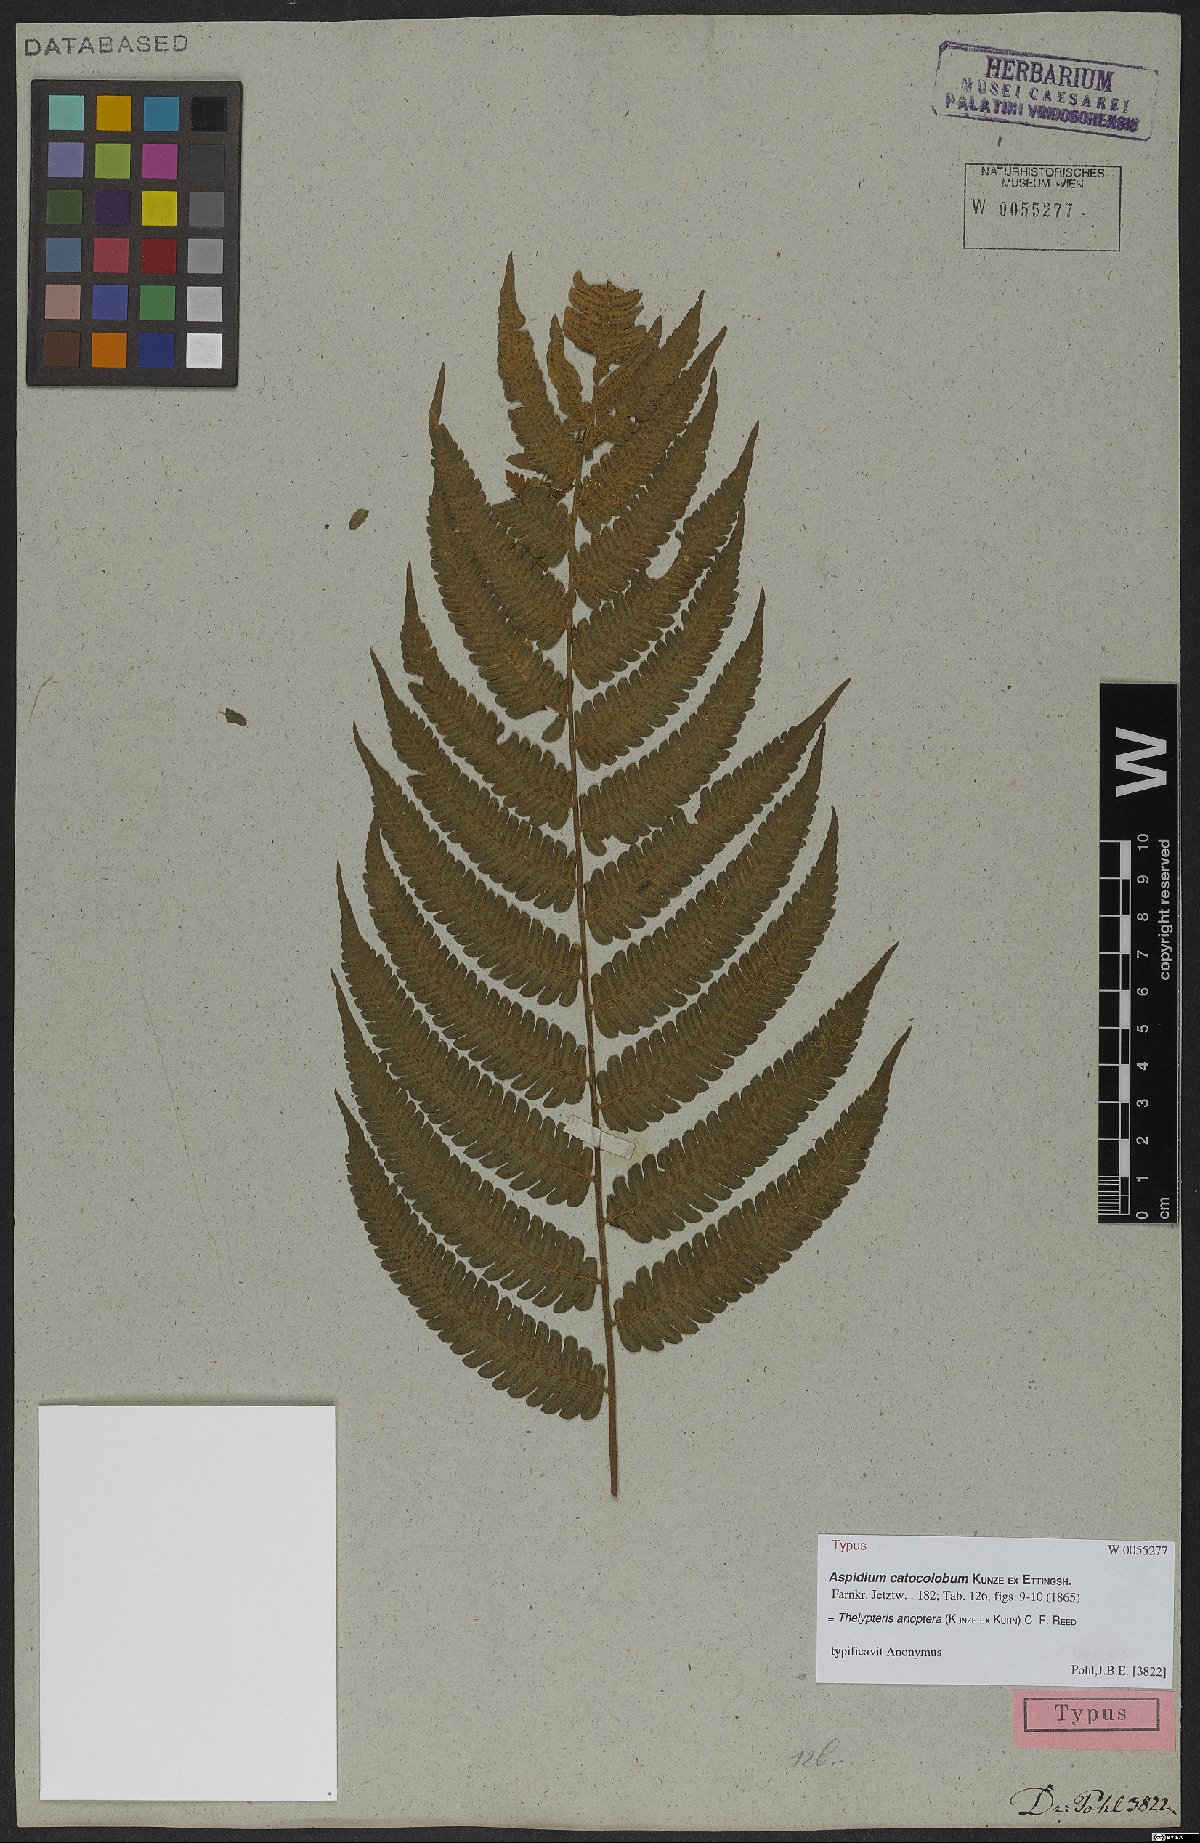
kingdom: Plantae
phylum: Tracheophyta
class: Polypodiopsida
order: Polypodiales
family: Thelypteridaceae
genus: Goniopteris
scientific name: Goniopteris anopteros
